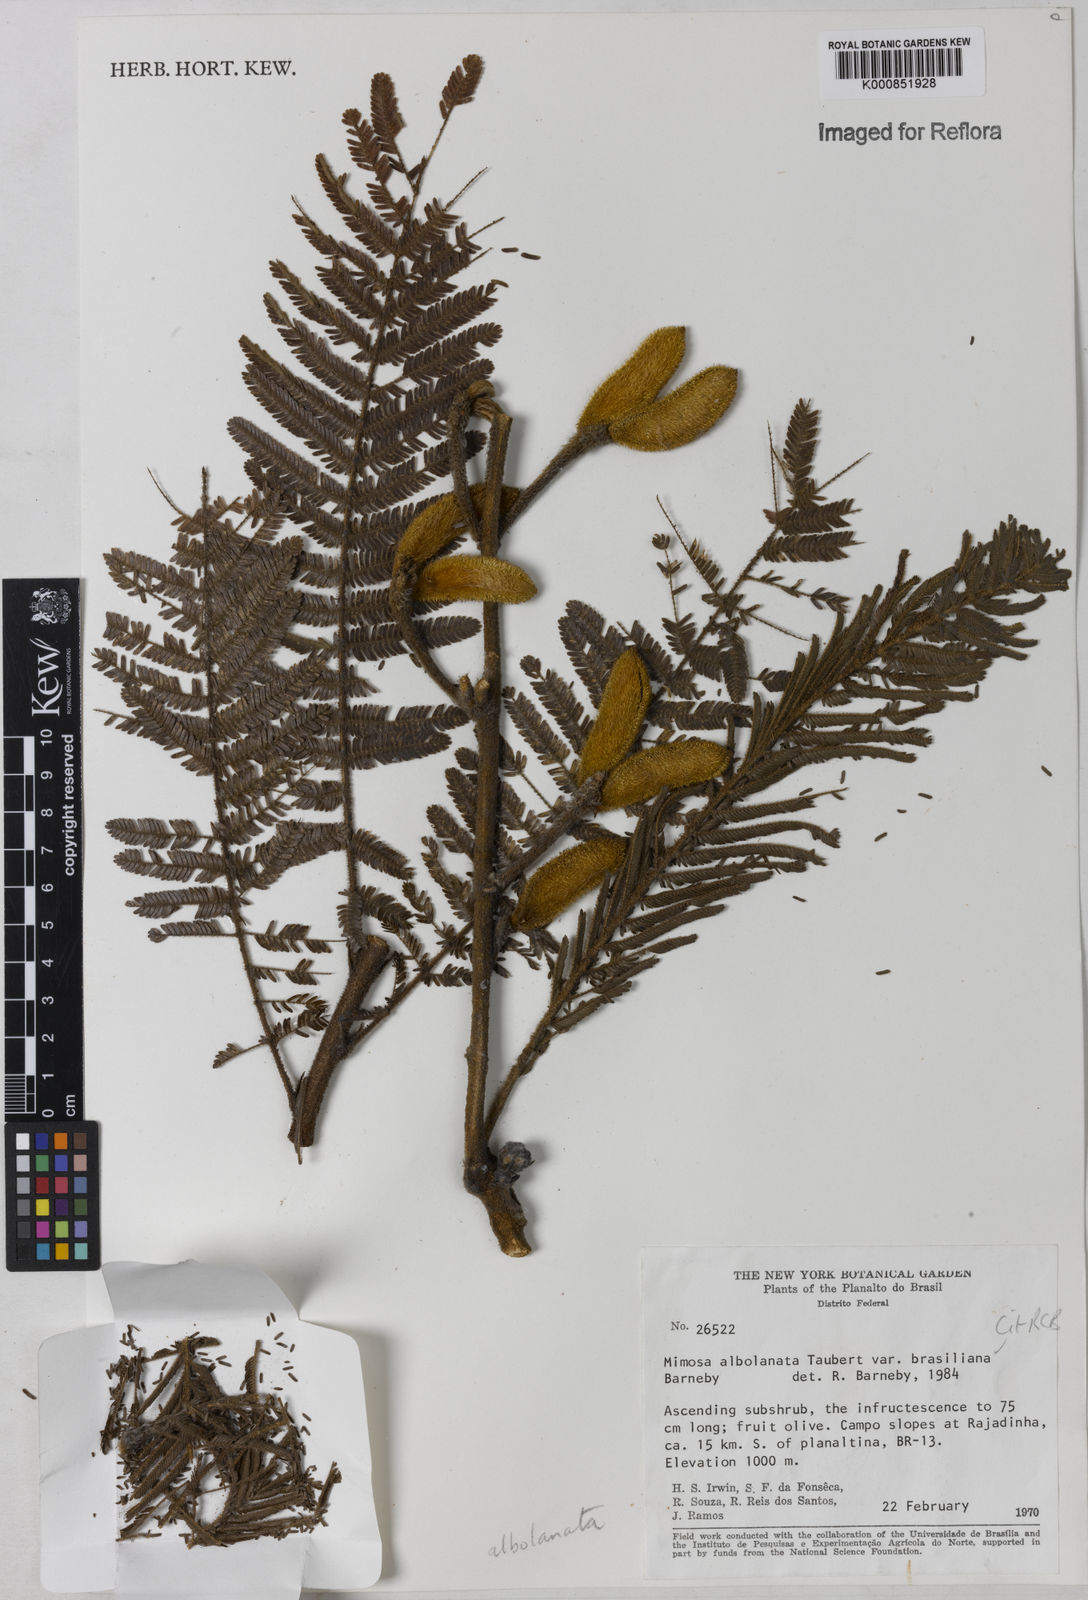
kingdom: Plantae
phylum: Tracheophyta
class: Magnoliopsida
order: Fabales
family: Fabaceae
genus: Mimosa
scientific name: Mimosa albolanata
